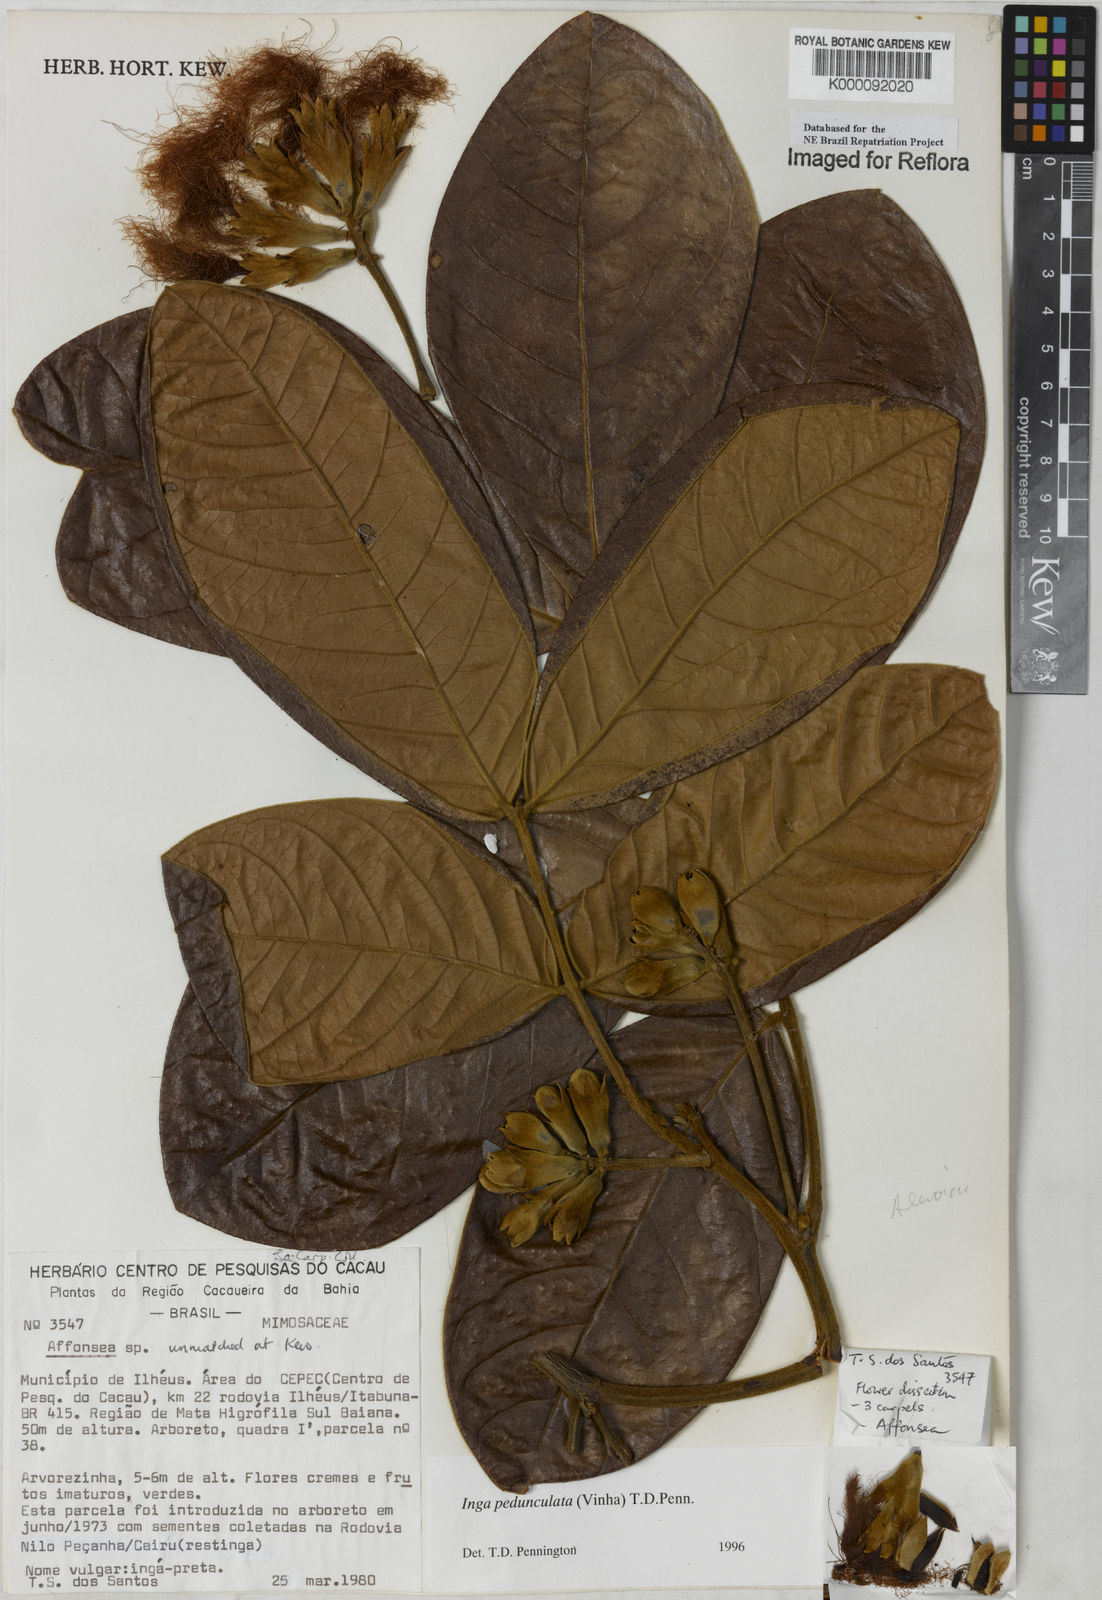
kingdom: Plantae
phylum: Tracheophyta
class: Magnoliopsida
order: Fabales
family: Fabaceae
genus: Inga
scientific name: Inga pedunculata
